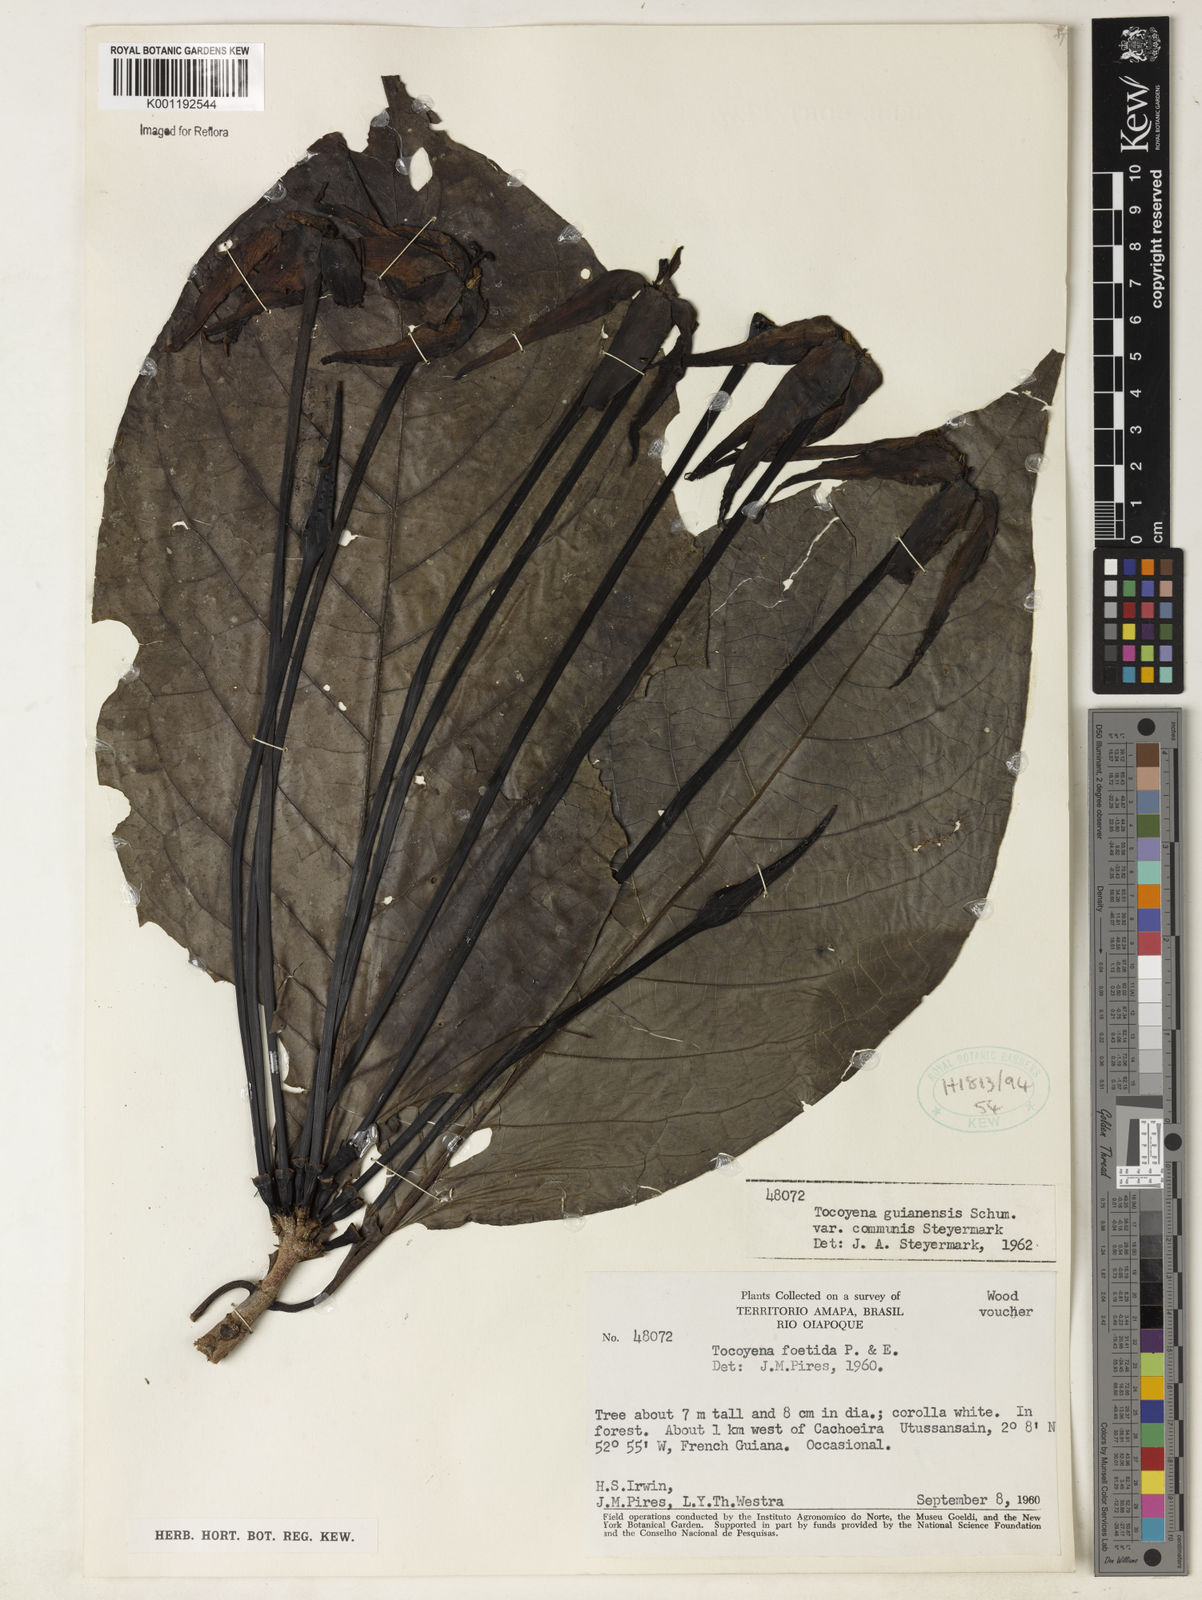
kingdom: Plantae
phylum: Tracheophyta
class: Magnoliopsida
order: Gentianales
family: Rubiaceae
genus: Tocoyena
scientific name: Tocoyena guianensis
